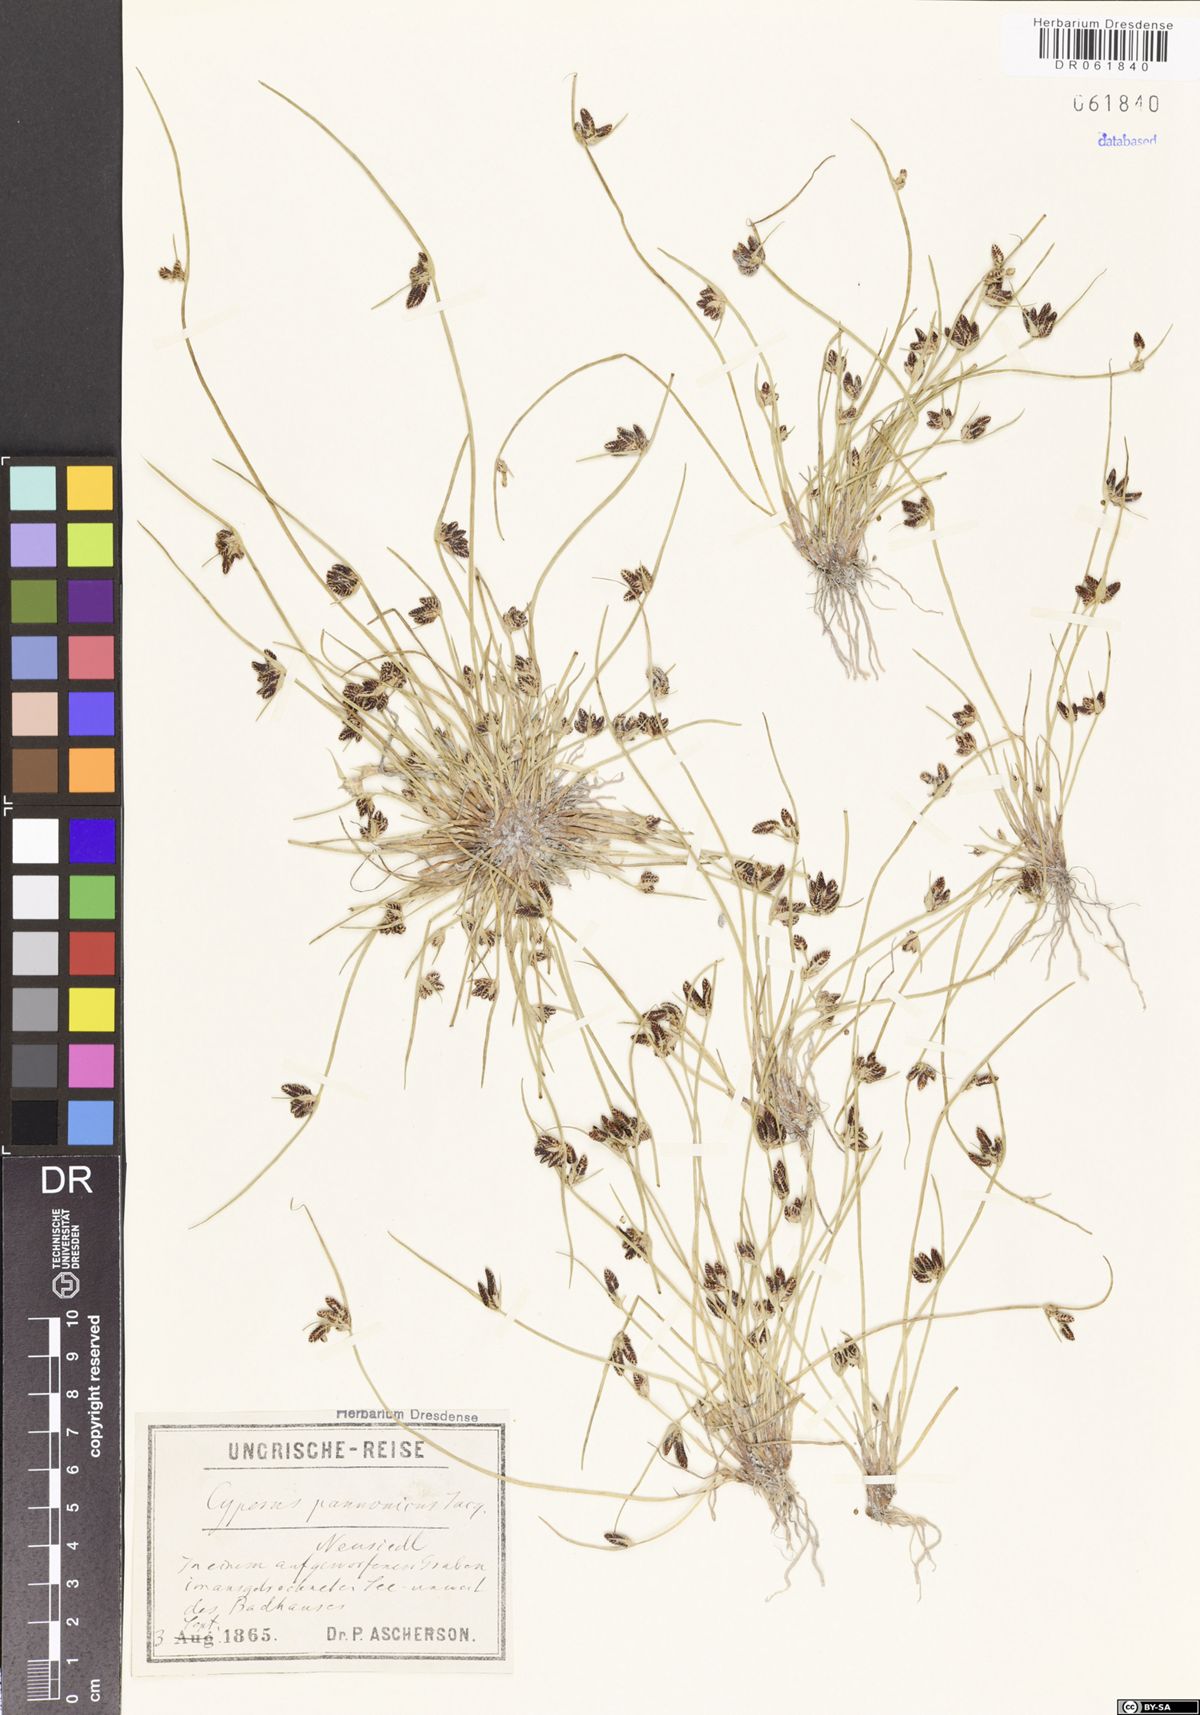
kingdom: Plantae
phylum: Tracheophyta
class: Liliopsida
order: Poales
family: Cyperaceae
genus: Cyperus
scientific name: Cyperus pannonicus
